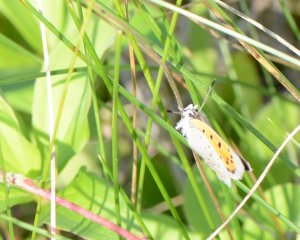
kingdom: Animalia
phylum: Arthropoda
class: Insecta
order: Lepidoptera
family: Lycaenidae
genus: Lycaena
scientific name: Lycaena phlaeas
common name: American Copper
